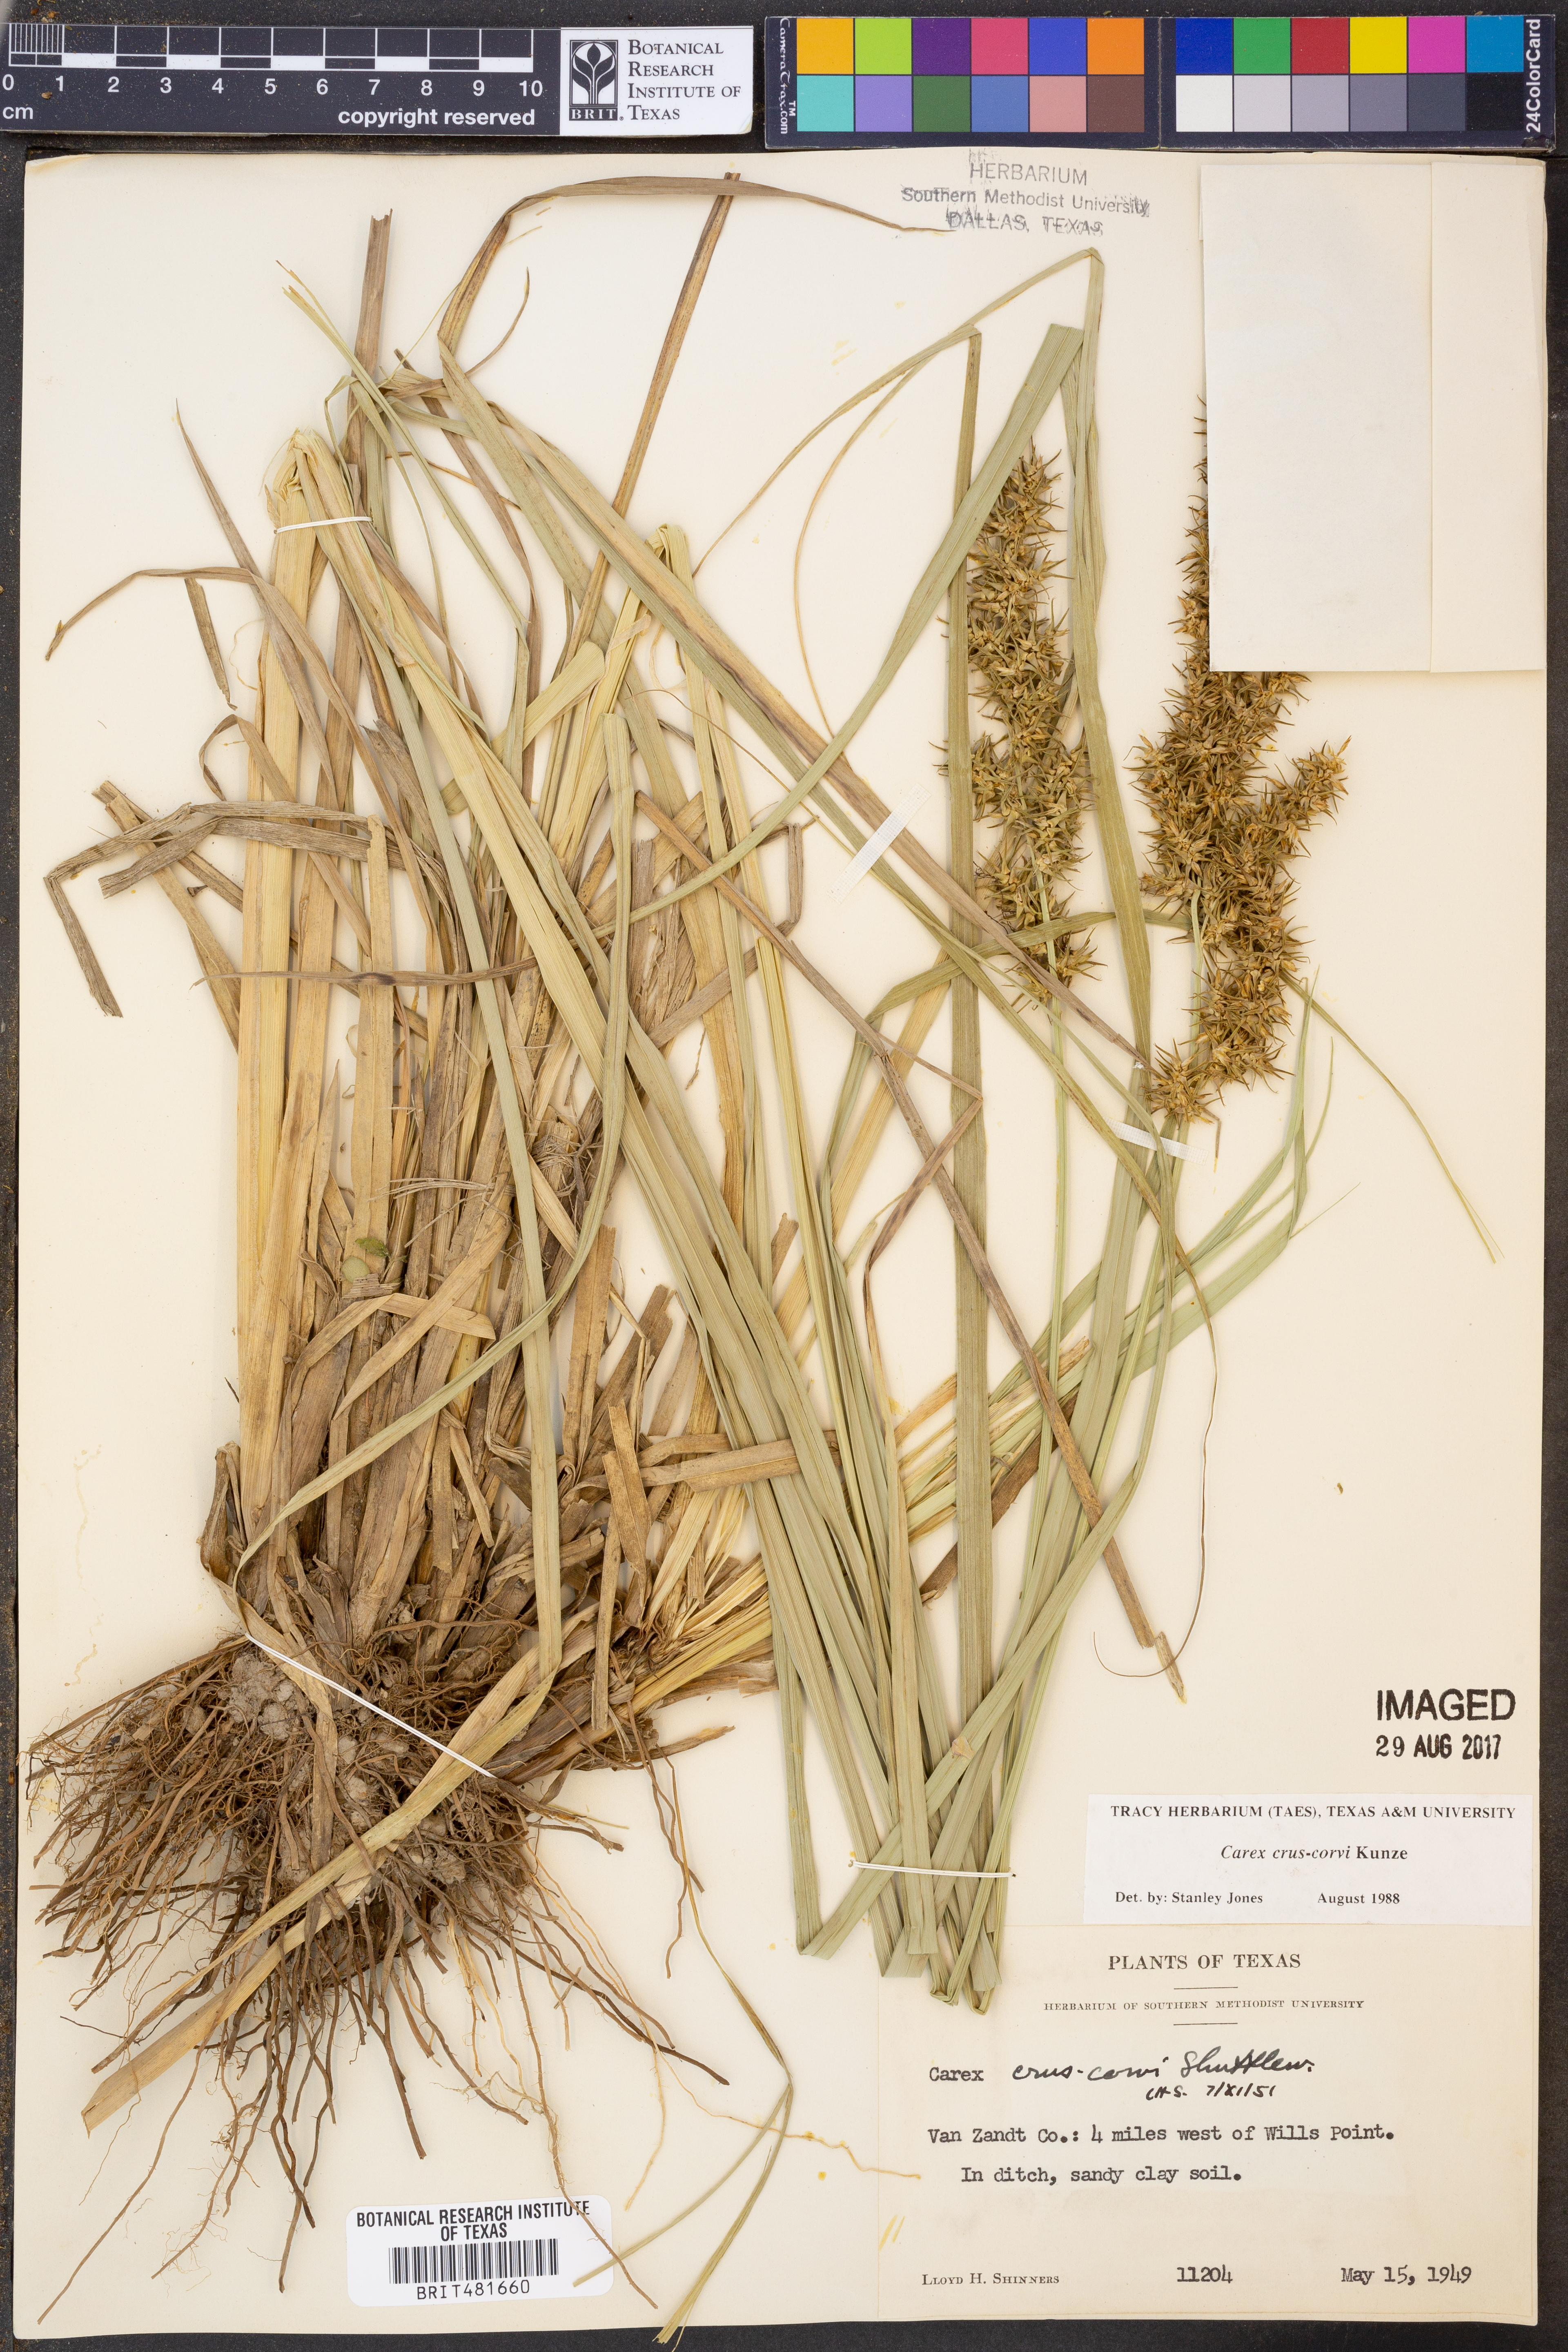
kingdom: Plantae
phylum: Tracheophyta
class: Liliopsida
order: Poales
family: Cyperaceae
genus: Carex
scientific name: Carex crus-corvi
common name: Crow-spur sedge
